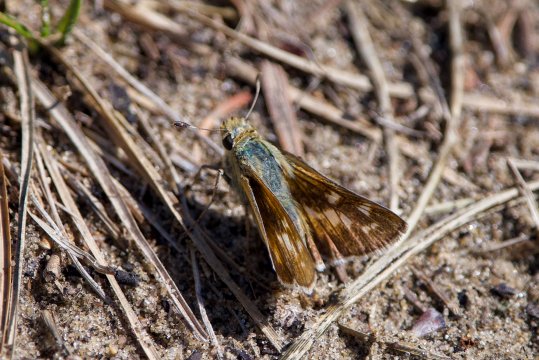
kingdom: Animalia
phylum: Arthropoda
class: Insecta
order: Lepidoptera
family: Hesperiidae
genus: Hesperia
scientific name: Hesperia
